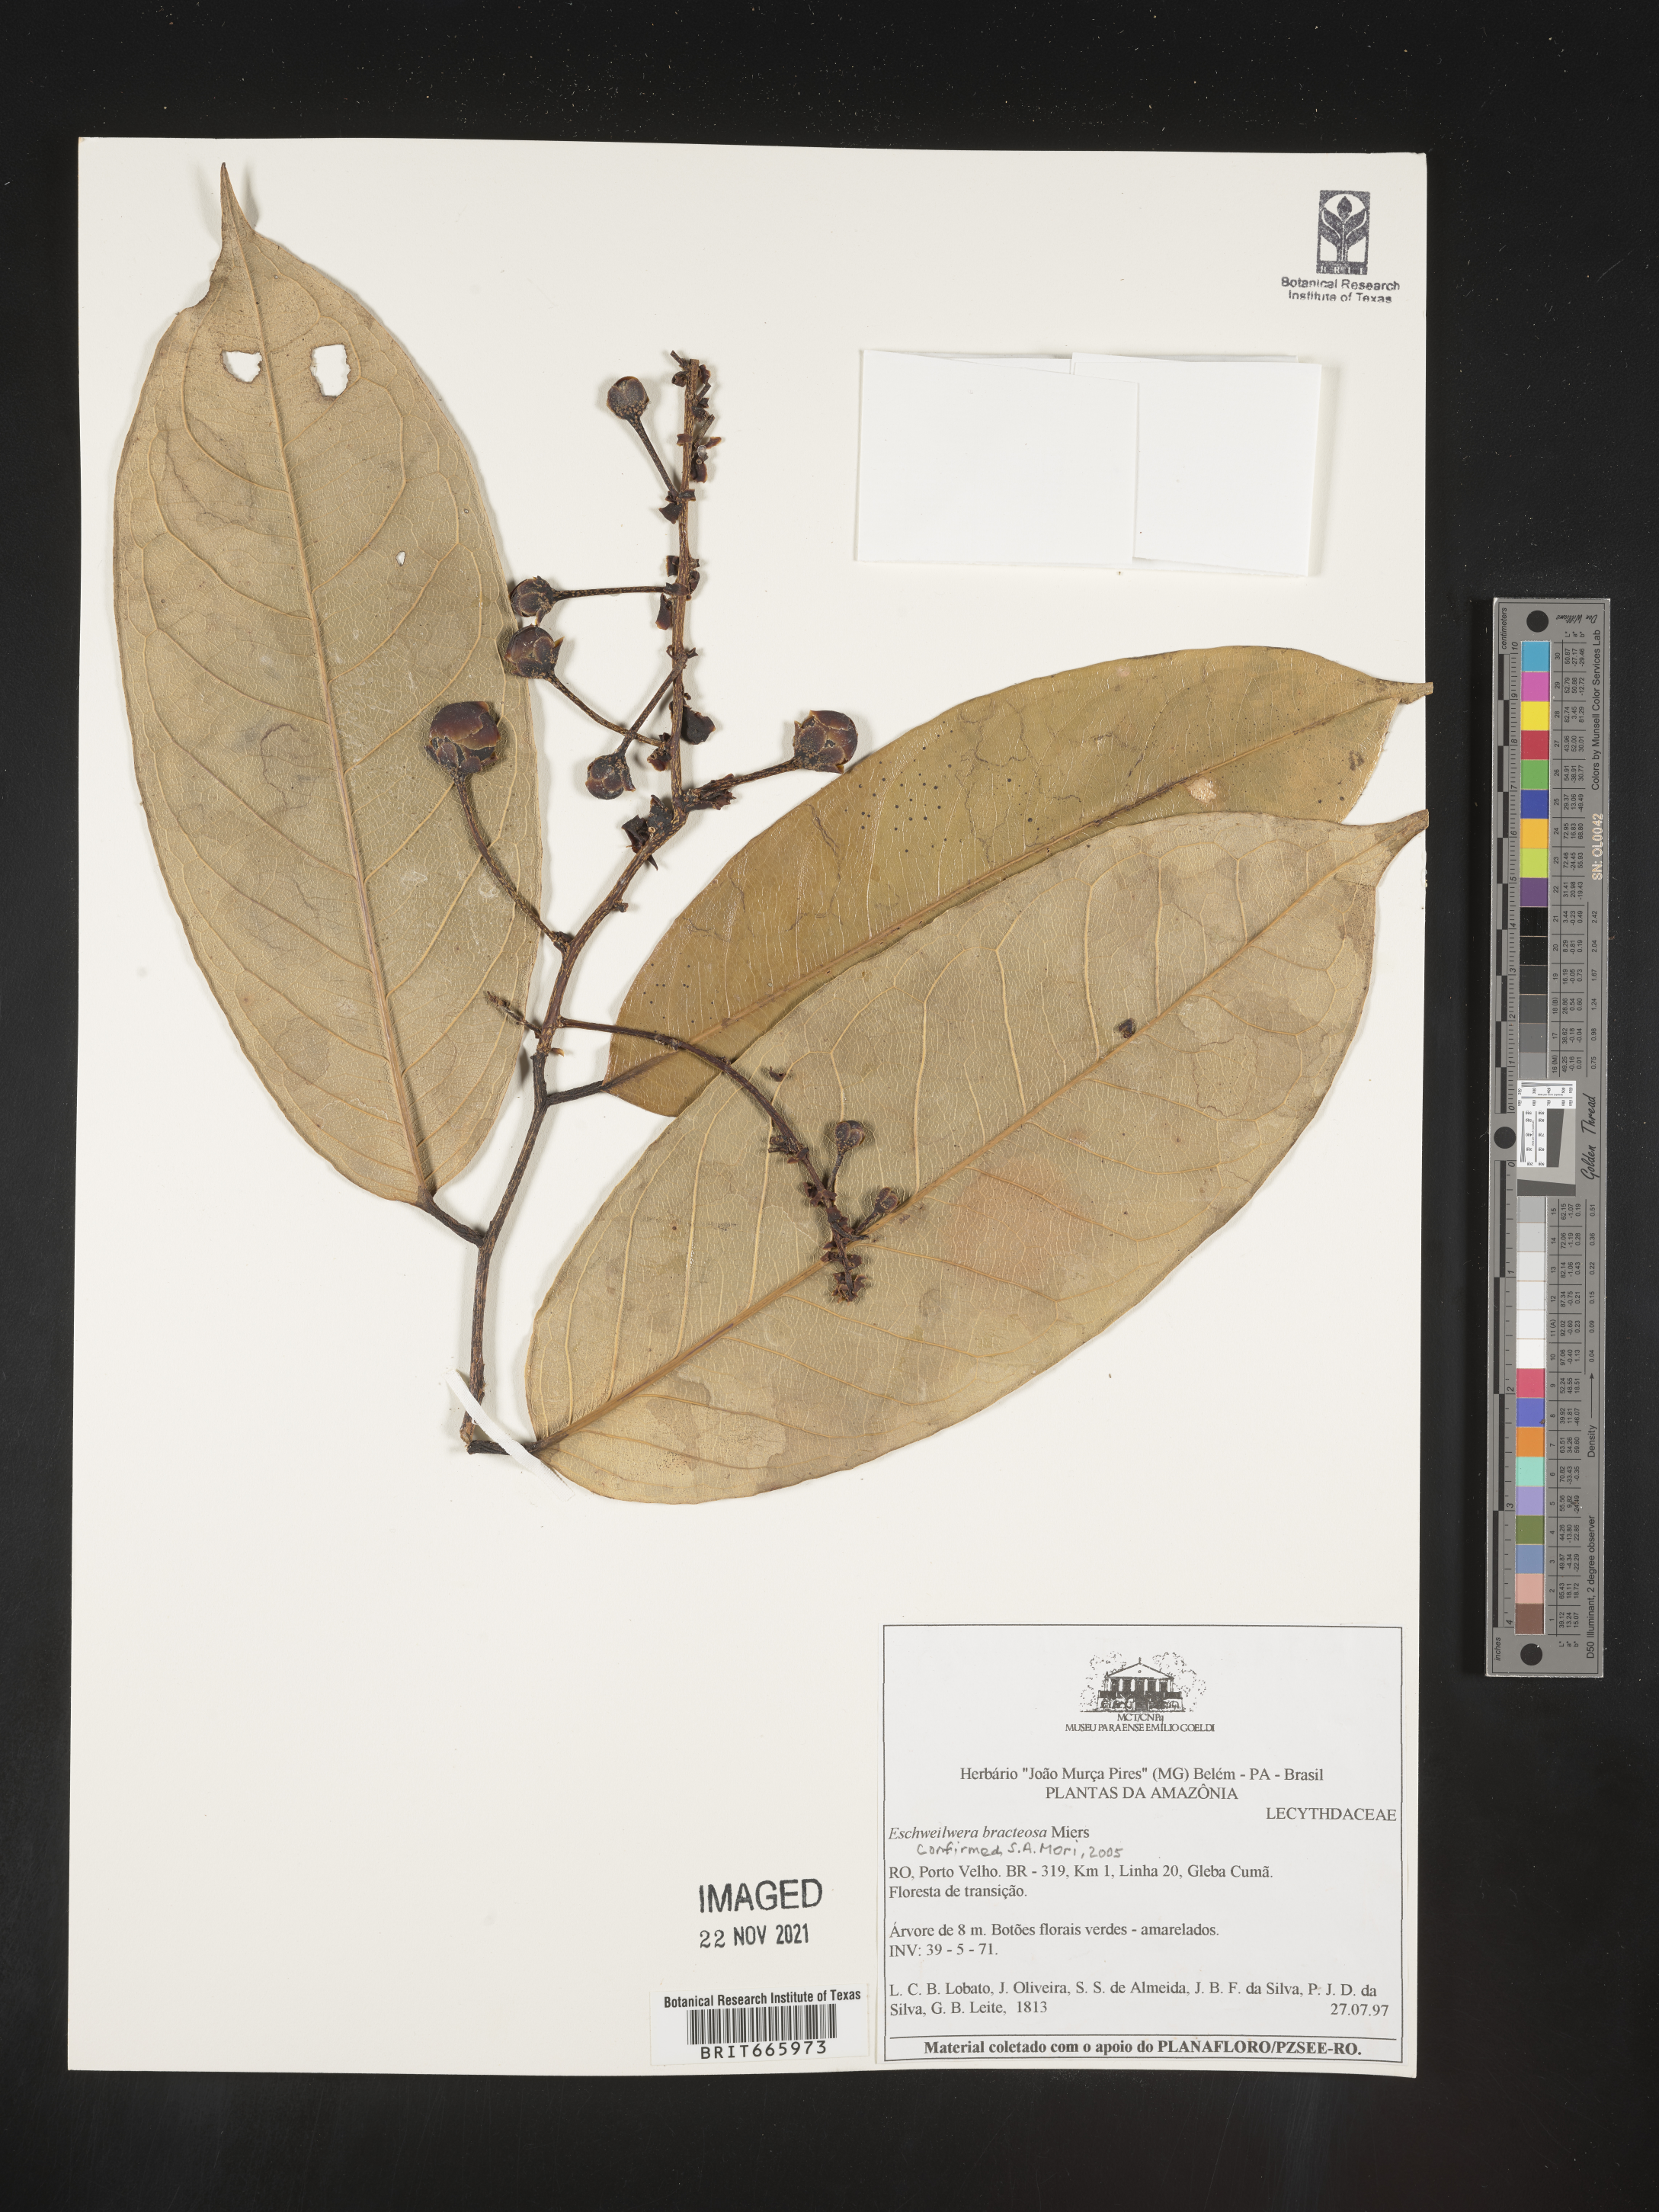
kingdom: Plantae
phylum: Tracheophyta
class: Magnoliopsida
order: Ericales
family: Lecythidaceae
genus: Eschweilera
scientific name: Eschweilera
